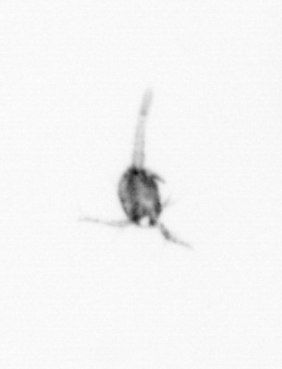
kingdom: Animalia
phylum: Arthropoda
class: Copepoda
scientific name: Copepoda
